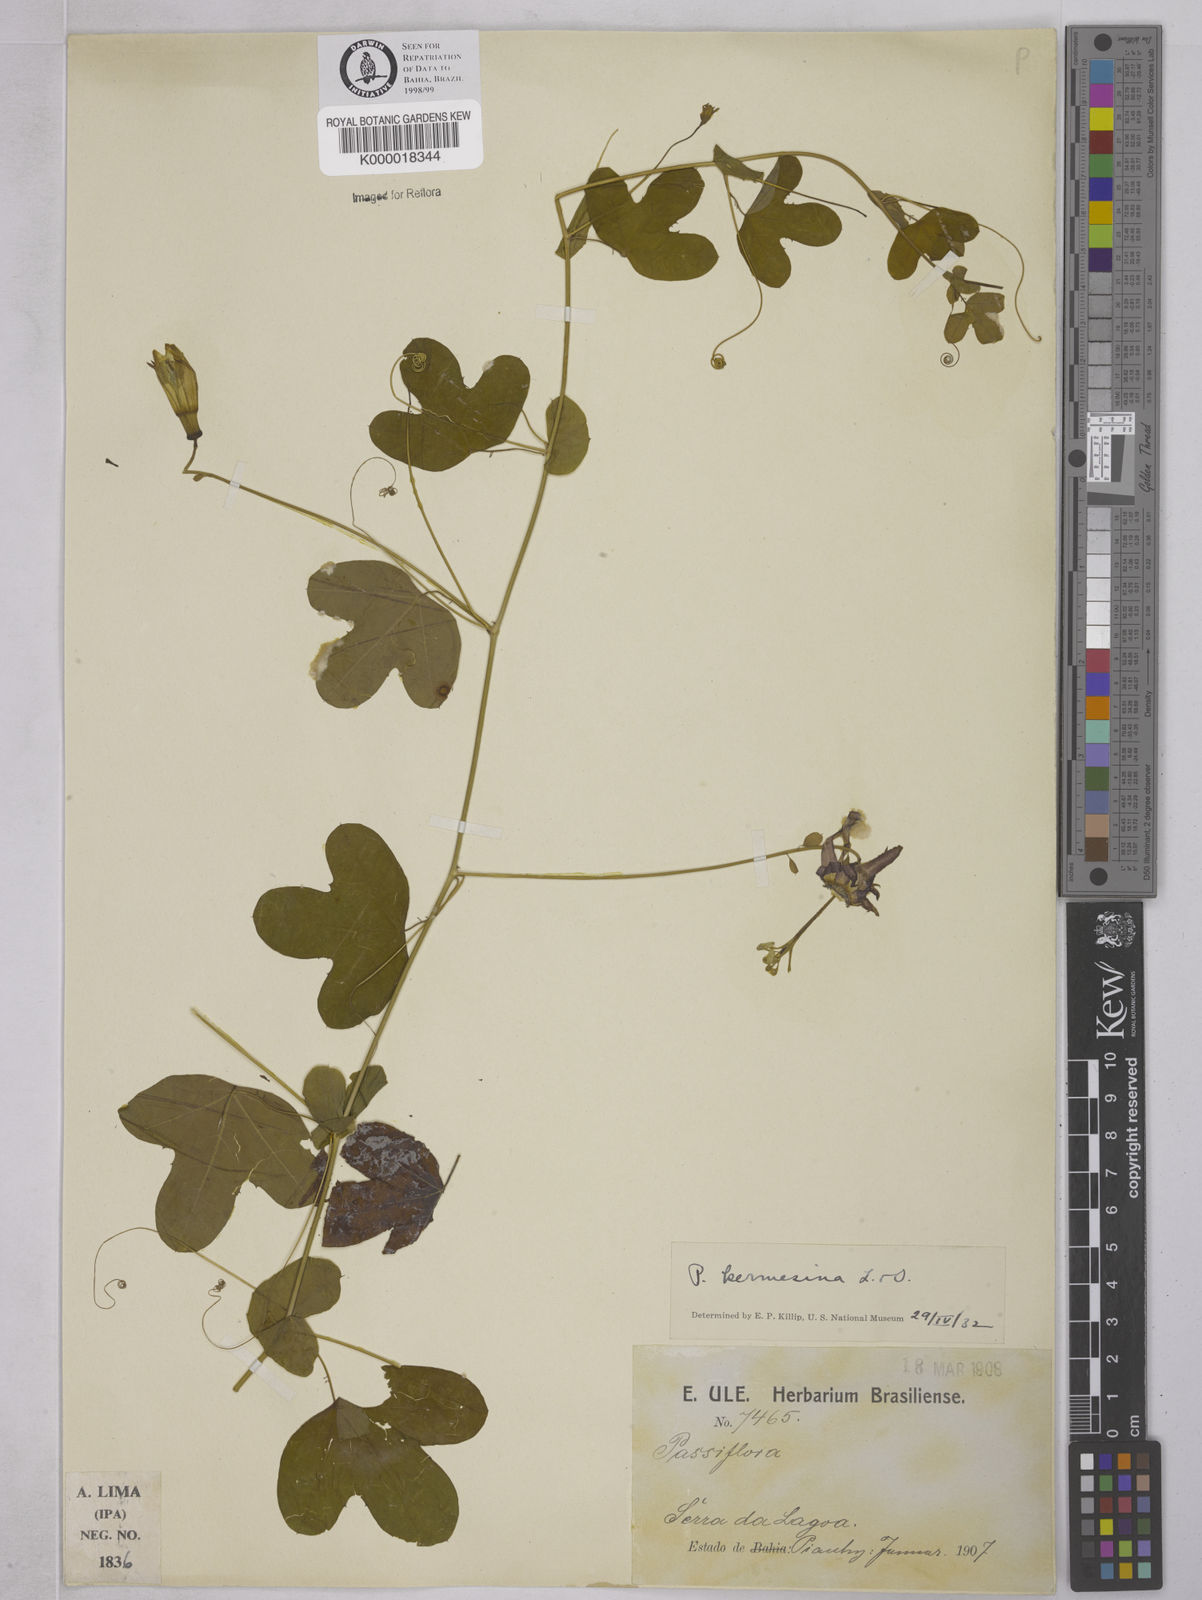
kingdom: Plantae
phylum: Tracheophyta
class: Magnoliopsida
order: Malpighiales
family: Passifloraceae
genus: Passiflora
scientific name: Passiflora kermesina
